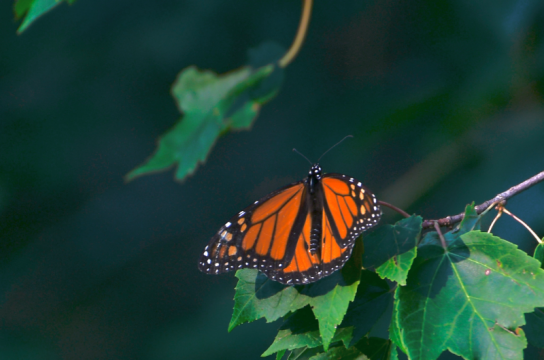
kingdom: Animalia
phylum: Arthropoda
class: Insecta
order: Lepidoptera
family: Nymphalidae
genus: Danaus
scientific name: Danaus plexippus
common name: Monarch
